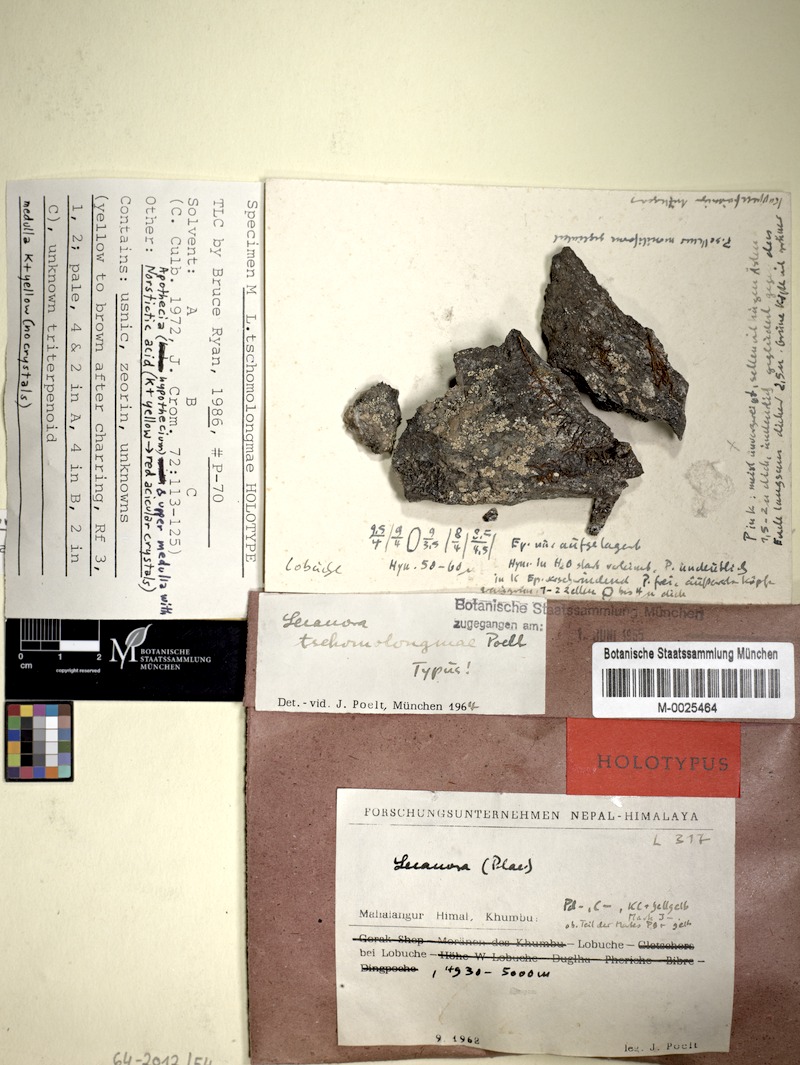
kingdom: Fungi
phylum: Ascomycota
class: Lecanoromycetes
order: Lecanorales
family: Lecanoraceae
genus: Lecanora
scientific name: Lecanora tschomolongmae
